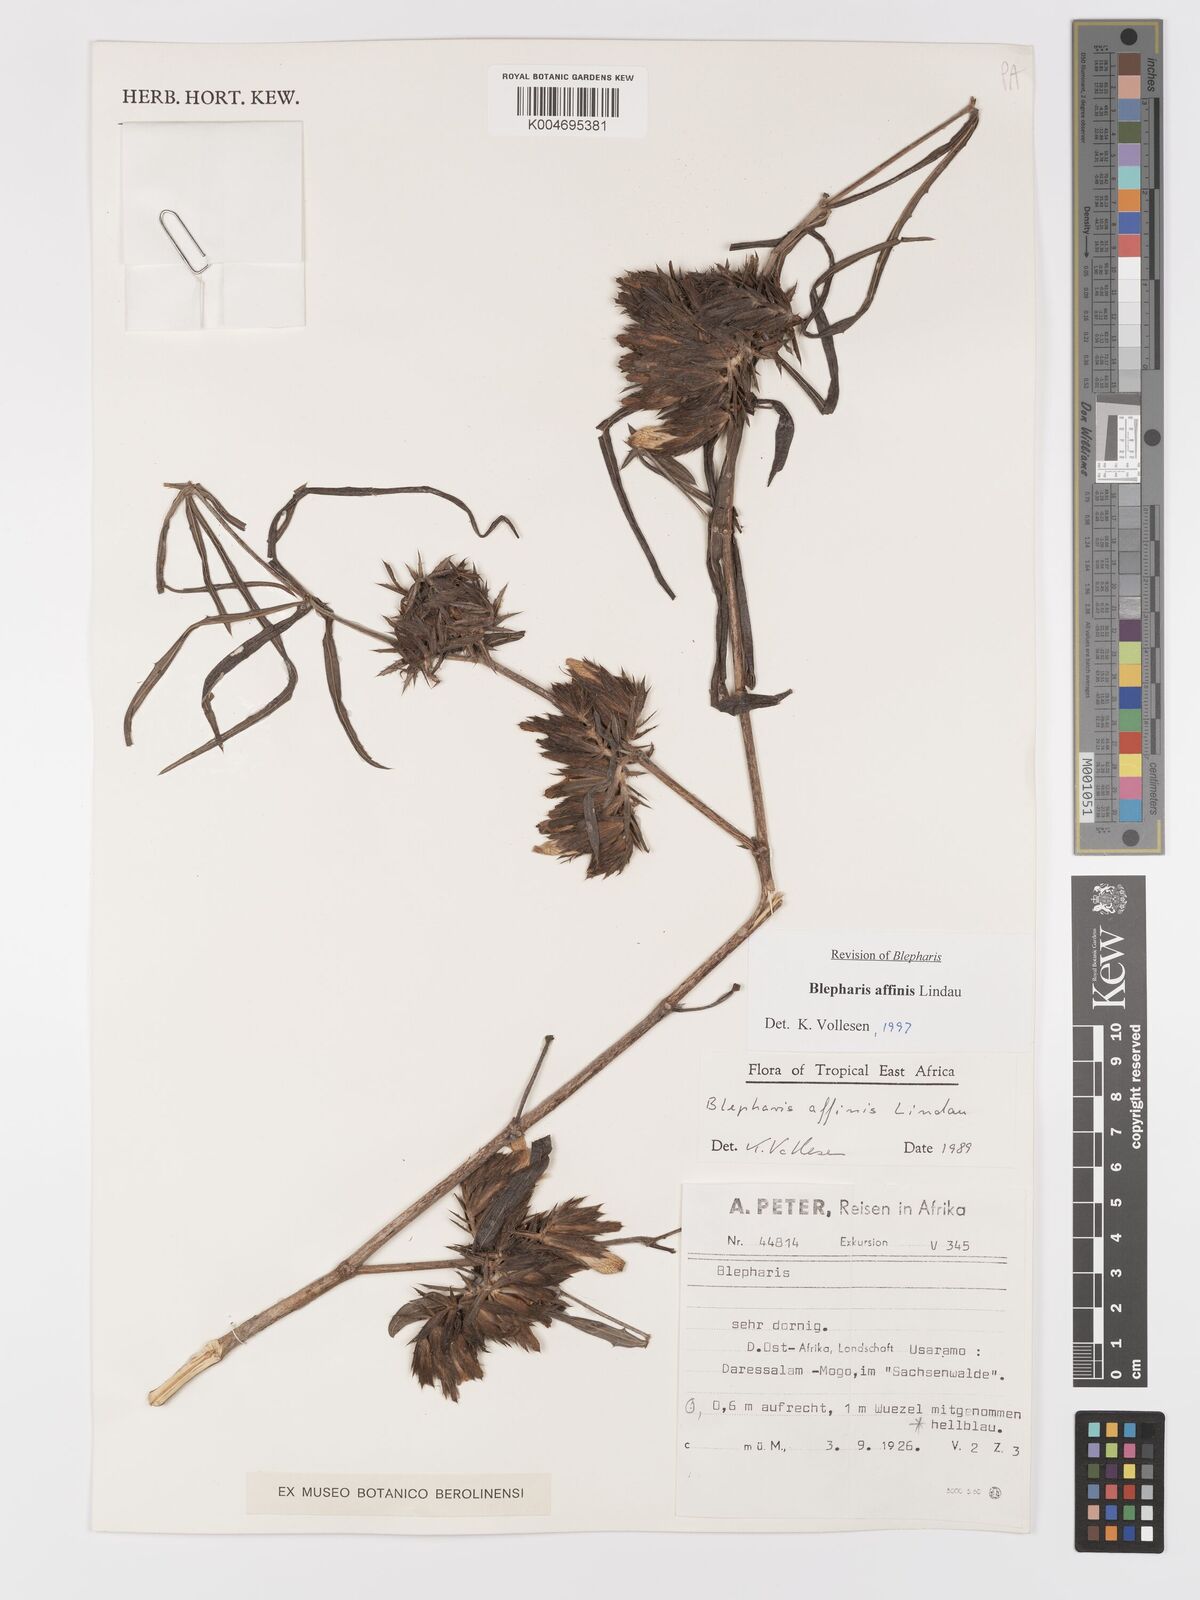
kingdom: Plantae
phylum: Tracheophyta
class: Magnoliopsida
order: Lamiales
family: Acanthaceae
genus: Blepharis
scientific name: Blepharis affinis
